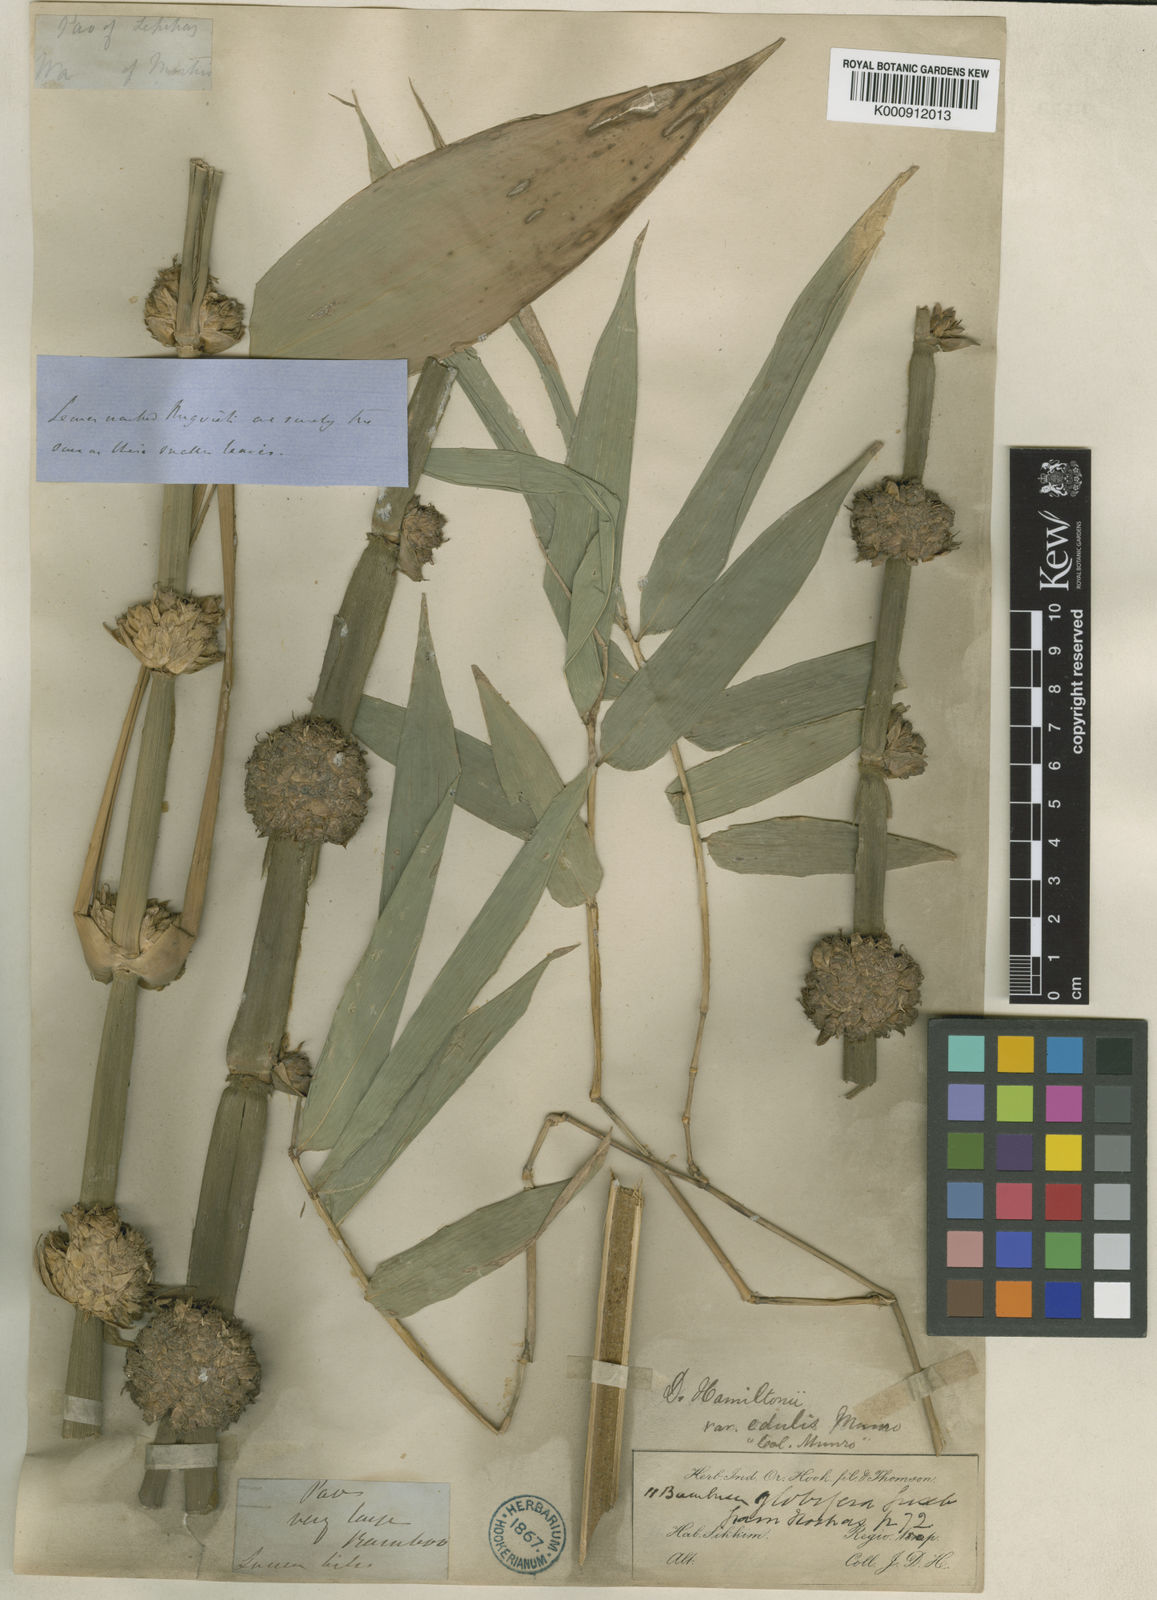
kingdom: Plantae
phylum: Tracheophyta
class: Liliopsida
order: Poales
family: Poaceae
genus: Dendrocalamus
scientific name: Dendrocalamus hamiltonii
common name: Tama bamboo
